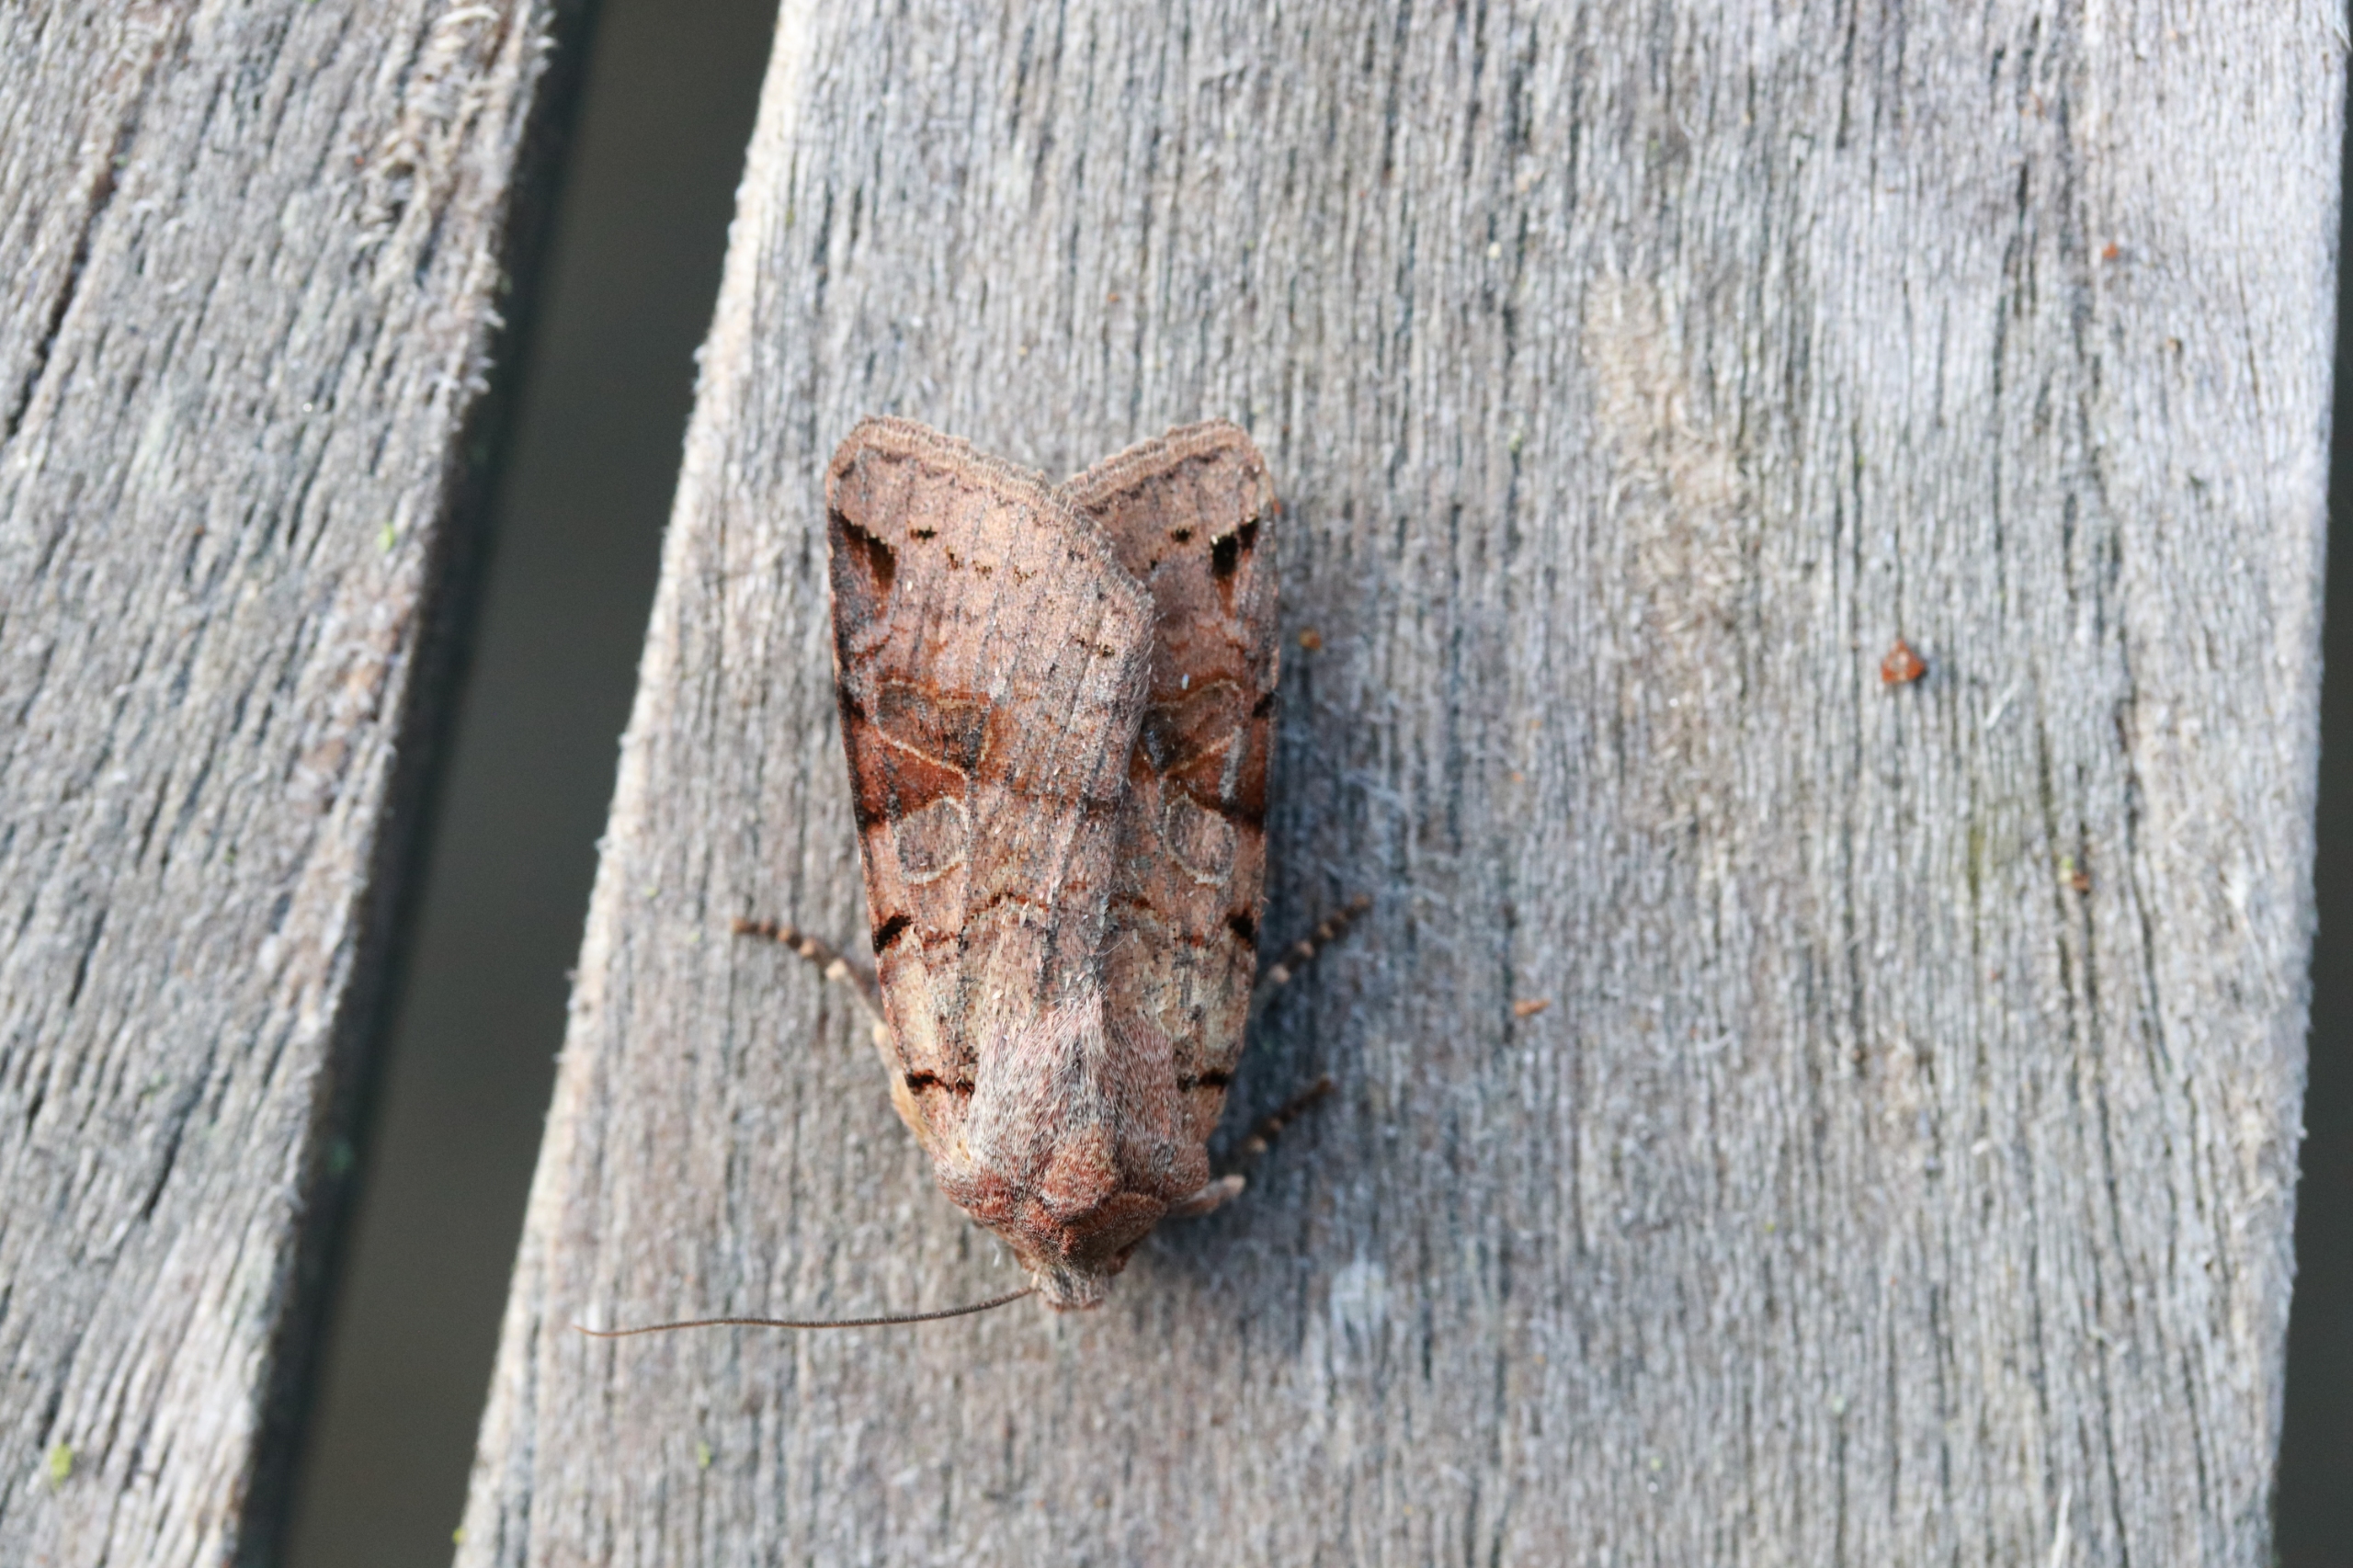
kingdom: Animalia
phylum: Arthropoda
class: Insecta
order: Lepidoptera
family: Noctuidae
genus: Agrochola
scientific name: Agrochola litura
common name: Kantplettet jordfarveugle
